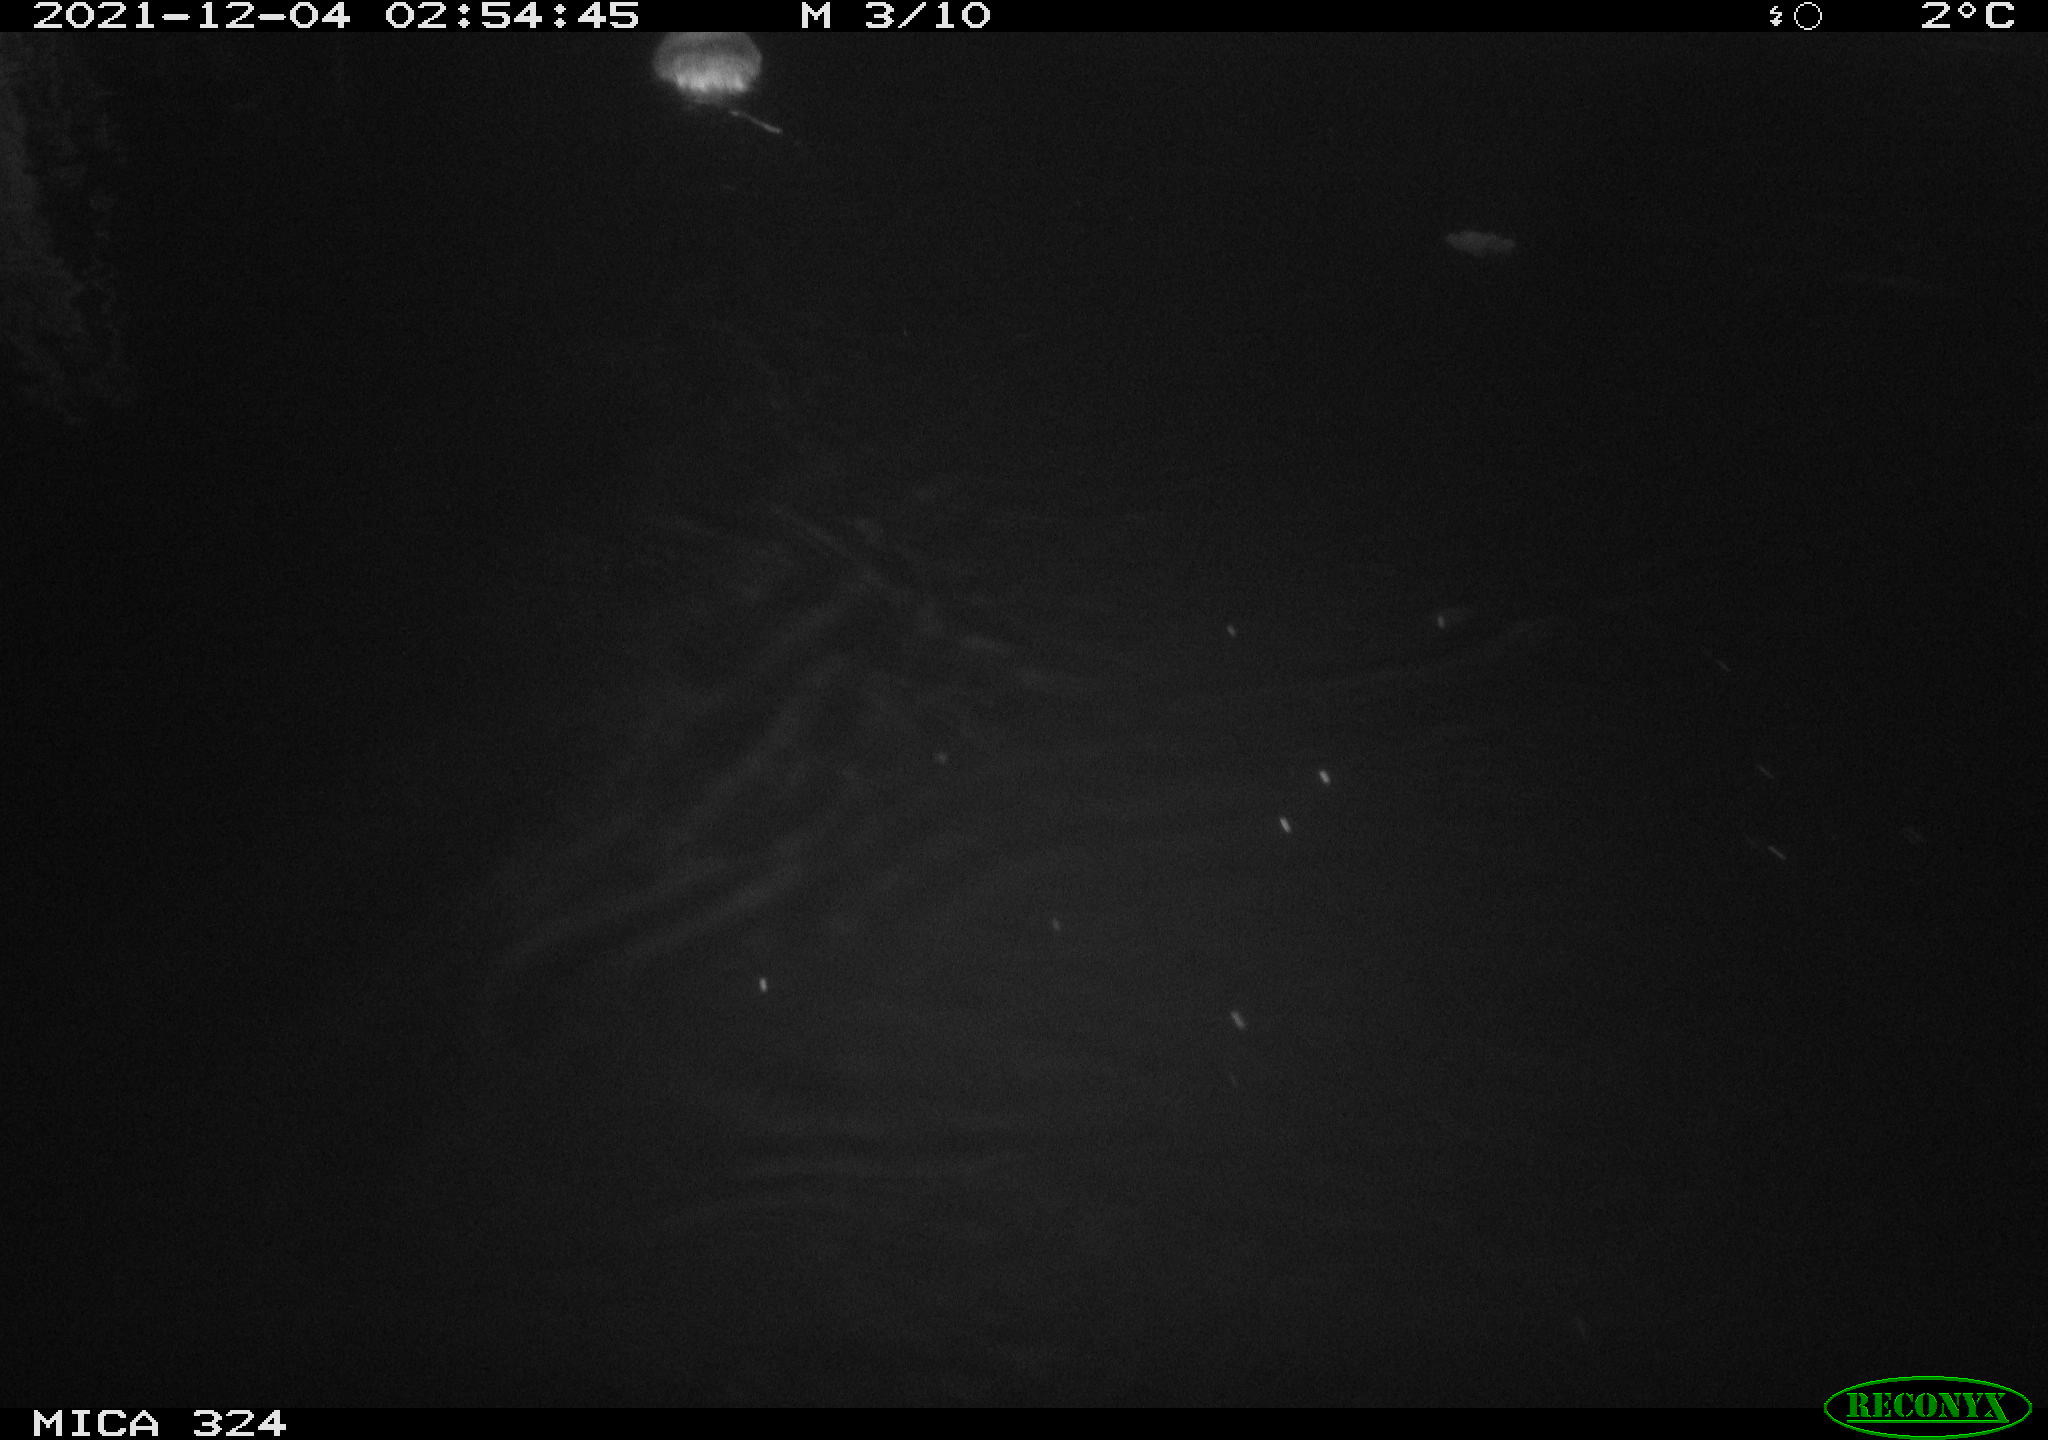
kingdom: Animalia
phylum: Chordata
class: Mammalia
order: Rodentia
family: Cricetidae
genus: Ondatra
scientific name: Ondatra zibethicus
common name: Muskrat
